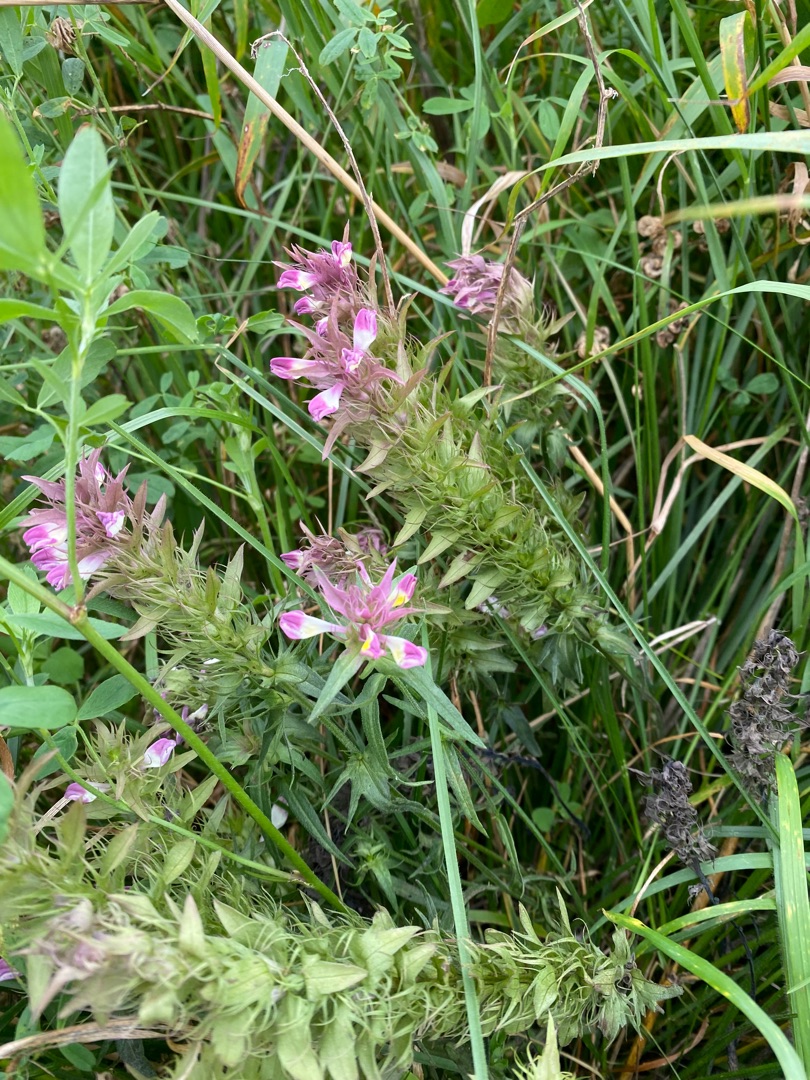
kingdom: Plantae
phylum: Tracheophyta
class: Magnoliopsida
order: Lamiales
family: Orobanchaceae
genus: Melampyrum
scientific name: Melampyrum arvense
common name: Ager-kohvede
